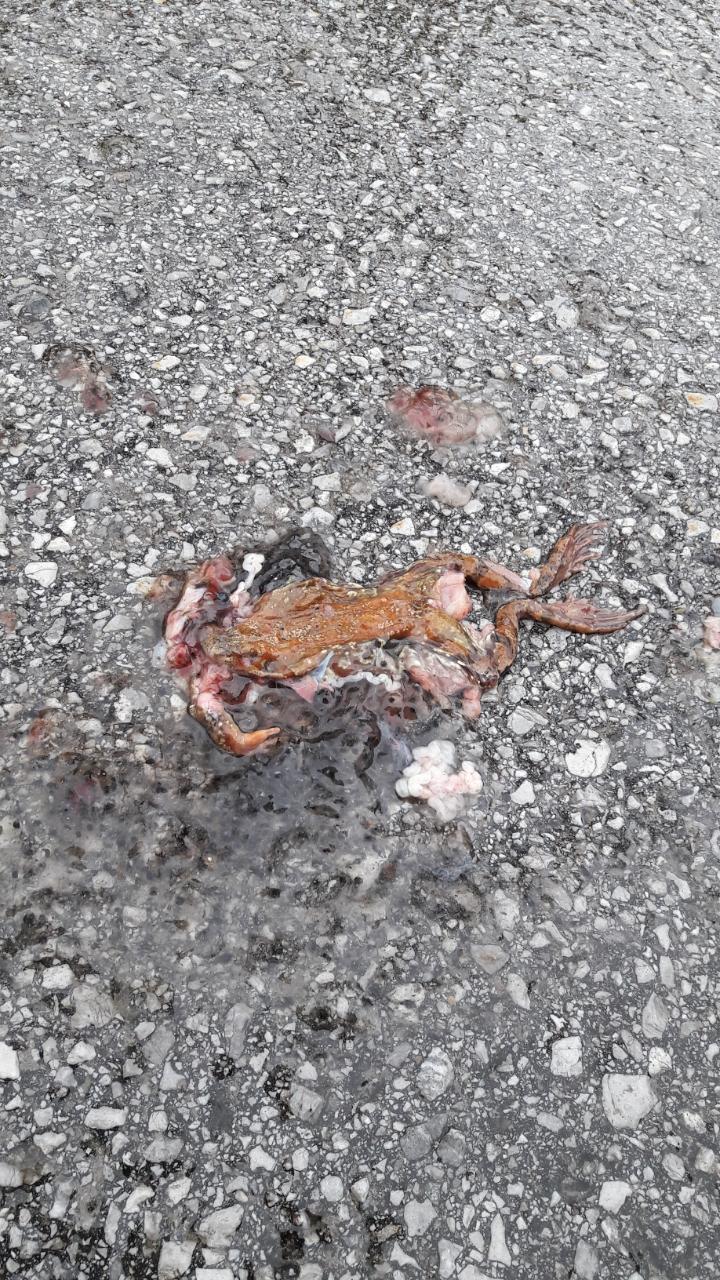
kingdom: Animalia
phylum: Chordata
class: Amphibia
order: Anura
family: Ranidae
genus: Rana
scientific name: Rana temporaria
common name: Common frog
